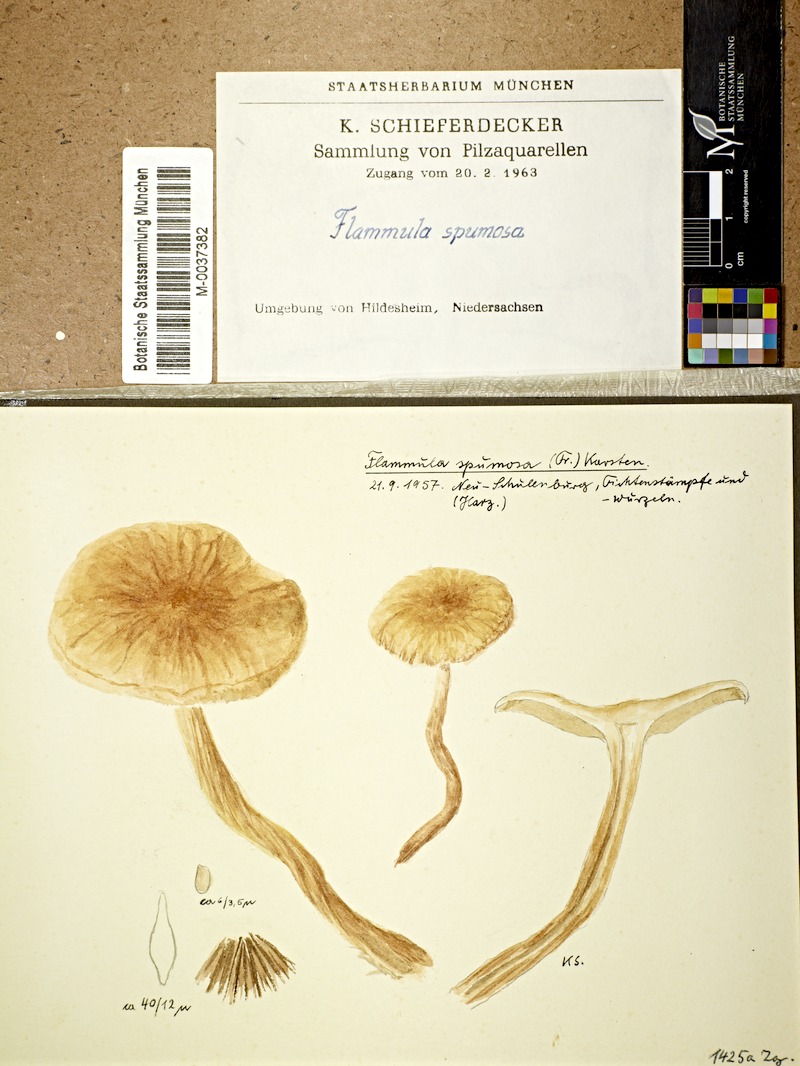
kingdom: Plantae
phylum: Tracheophyta
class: Pinopsida
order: Pinales
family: Pinaceae
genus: Picea
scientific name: Picea
